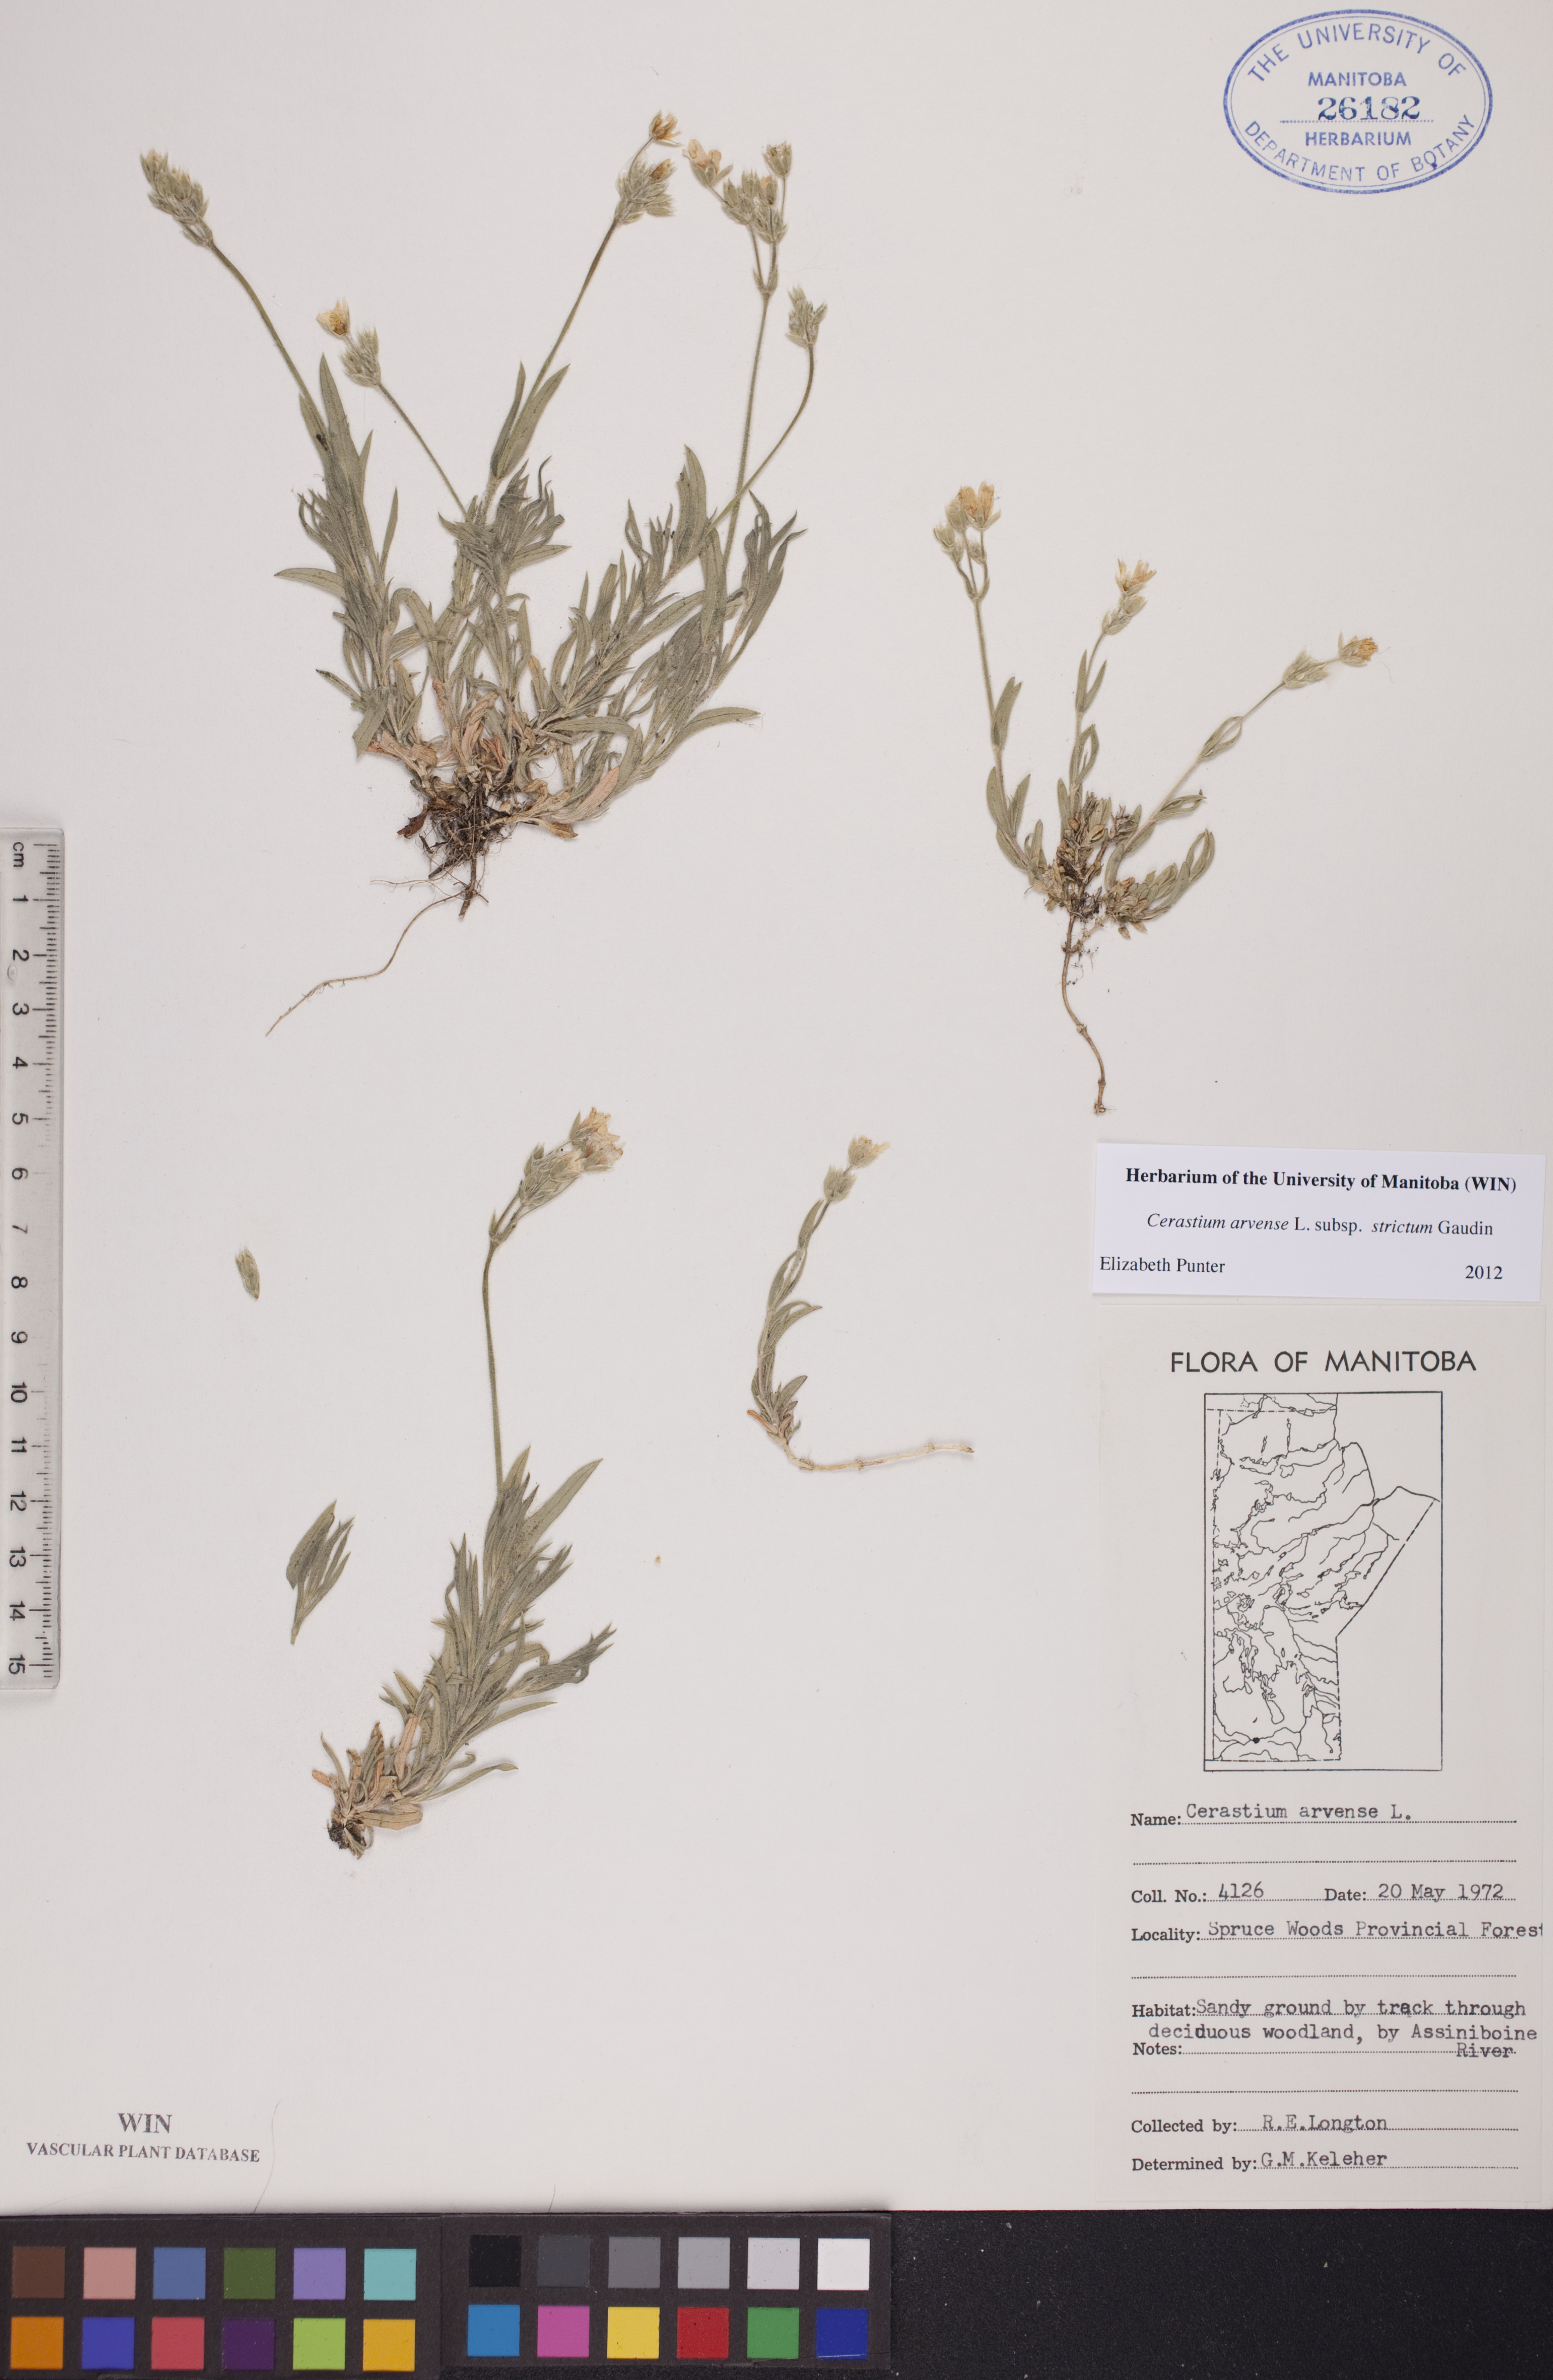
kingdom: Plantae
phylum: Tracheophyta
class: Magnoliopsida
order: Caryophyllales
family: Caryophyllaceae
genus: Cerastium
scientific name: Cerastium elongatum
